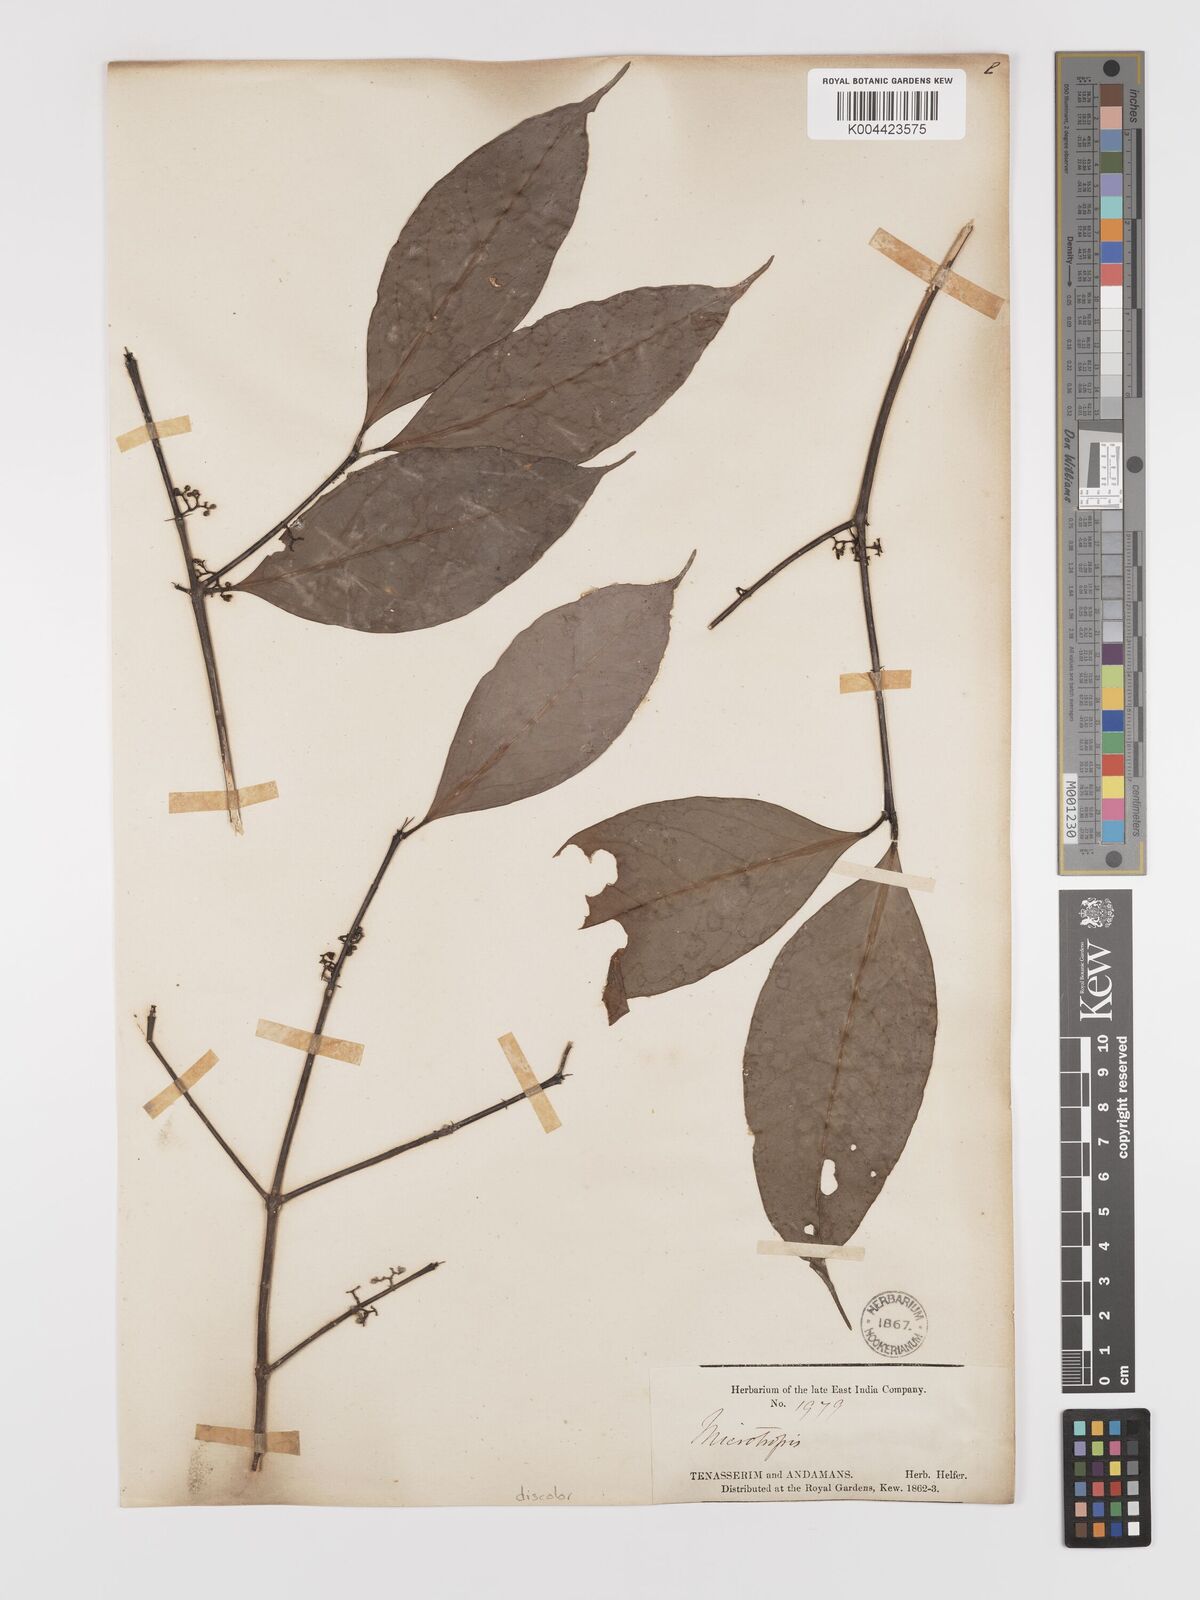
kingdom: Plantae
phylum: Tracheophyta
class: Magnoliopsida
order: Celastrales
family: Celastraceae
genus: Microtropis
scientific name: Microtropis discolor
